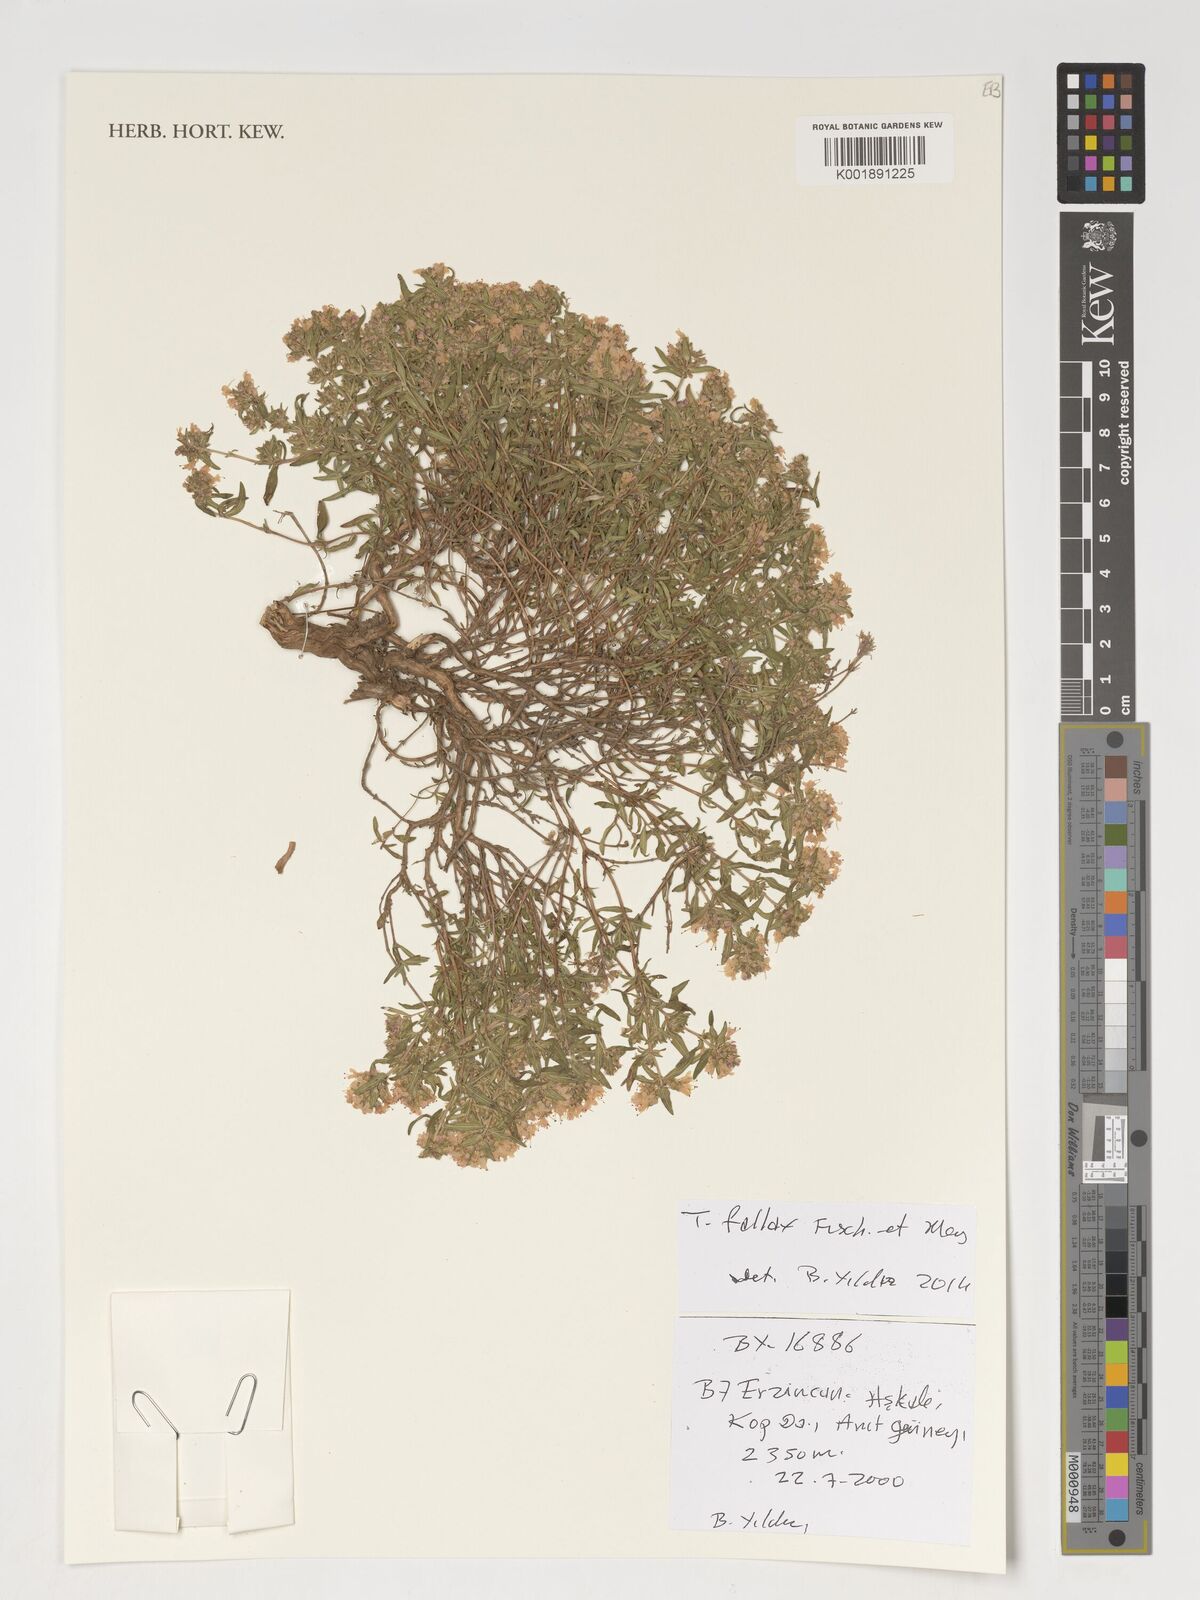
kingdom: Plantae
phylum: Tracheophyta
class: Magnoliopsida
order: Lamiales
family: Lamiaceae
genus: Thymus
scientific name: Thymus fallax
